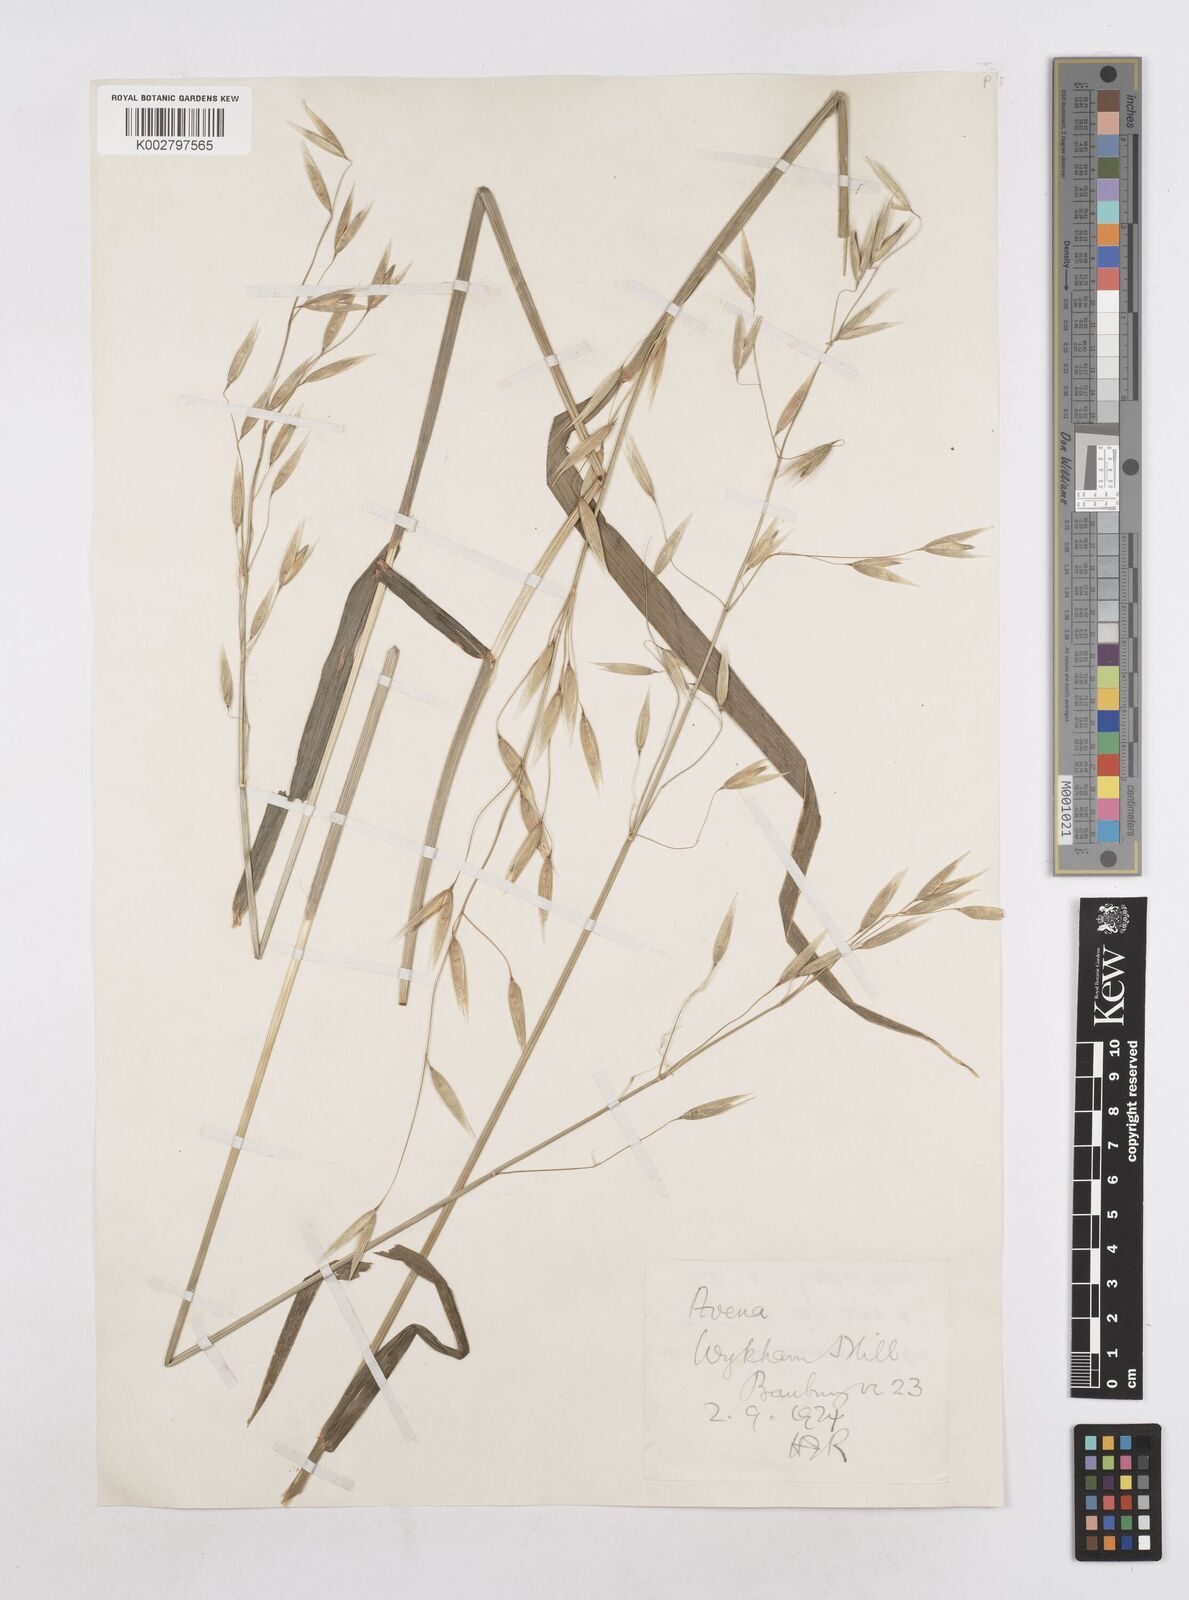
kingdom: Plantae
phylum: Tracheophyta
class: Liliopsida
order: Poales
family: Poaceae
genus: Avena
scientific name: Avena sativa
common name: Oat
